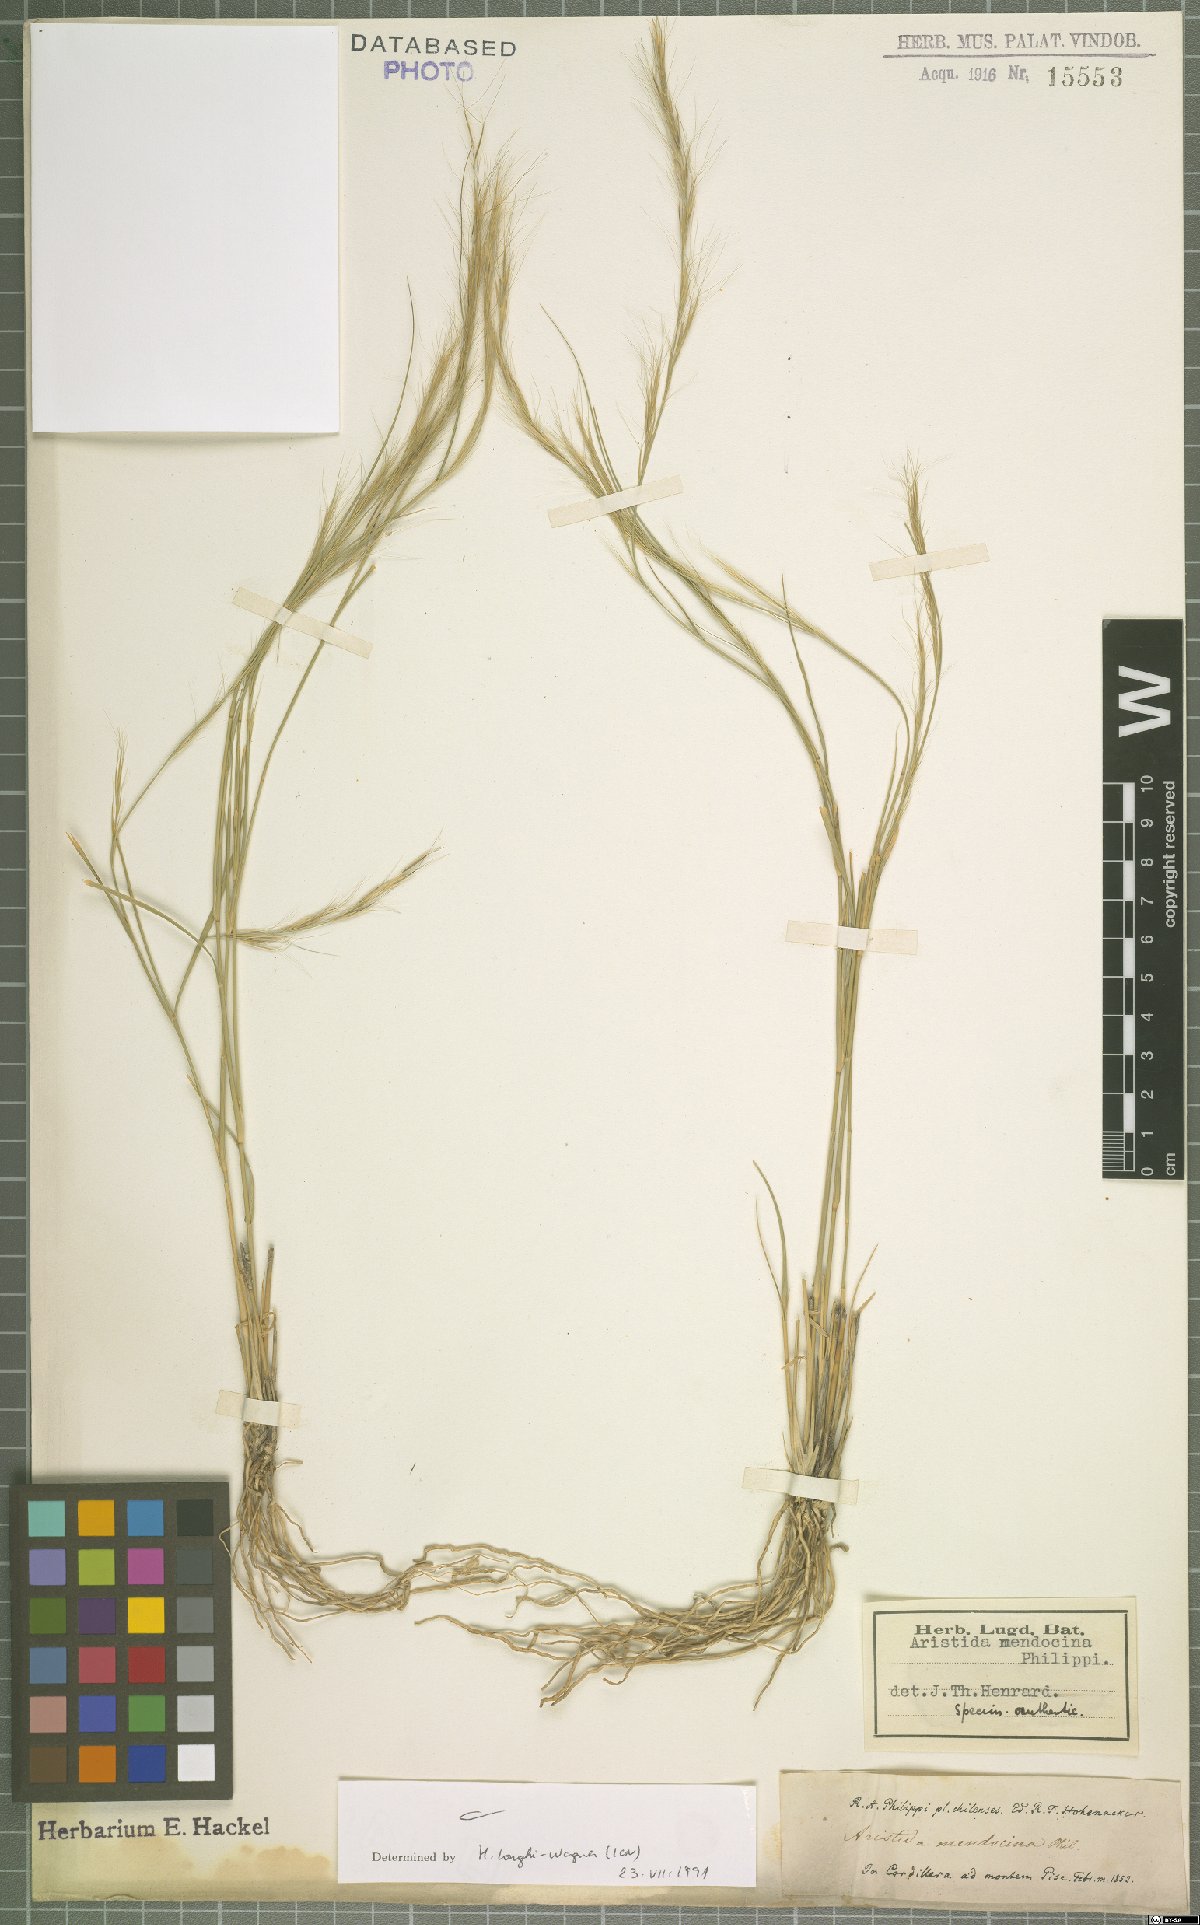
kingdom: Plantae
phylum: Tracheophyta
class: Liliopsida
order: Poales
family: Poaceae
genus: Aristida
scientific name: Aristida mendocina
